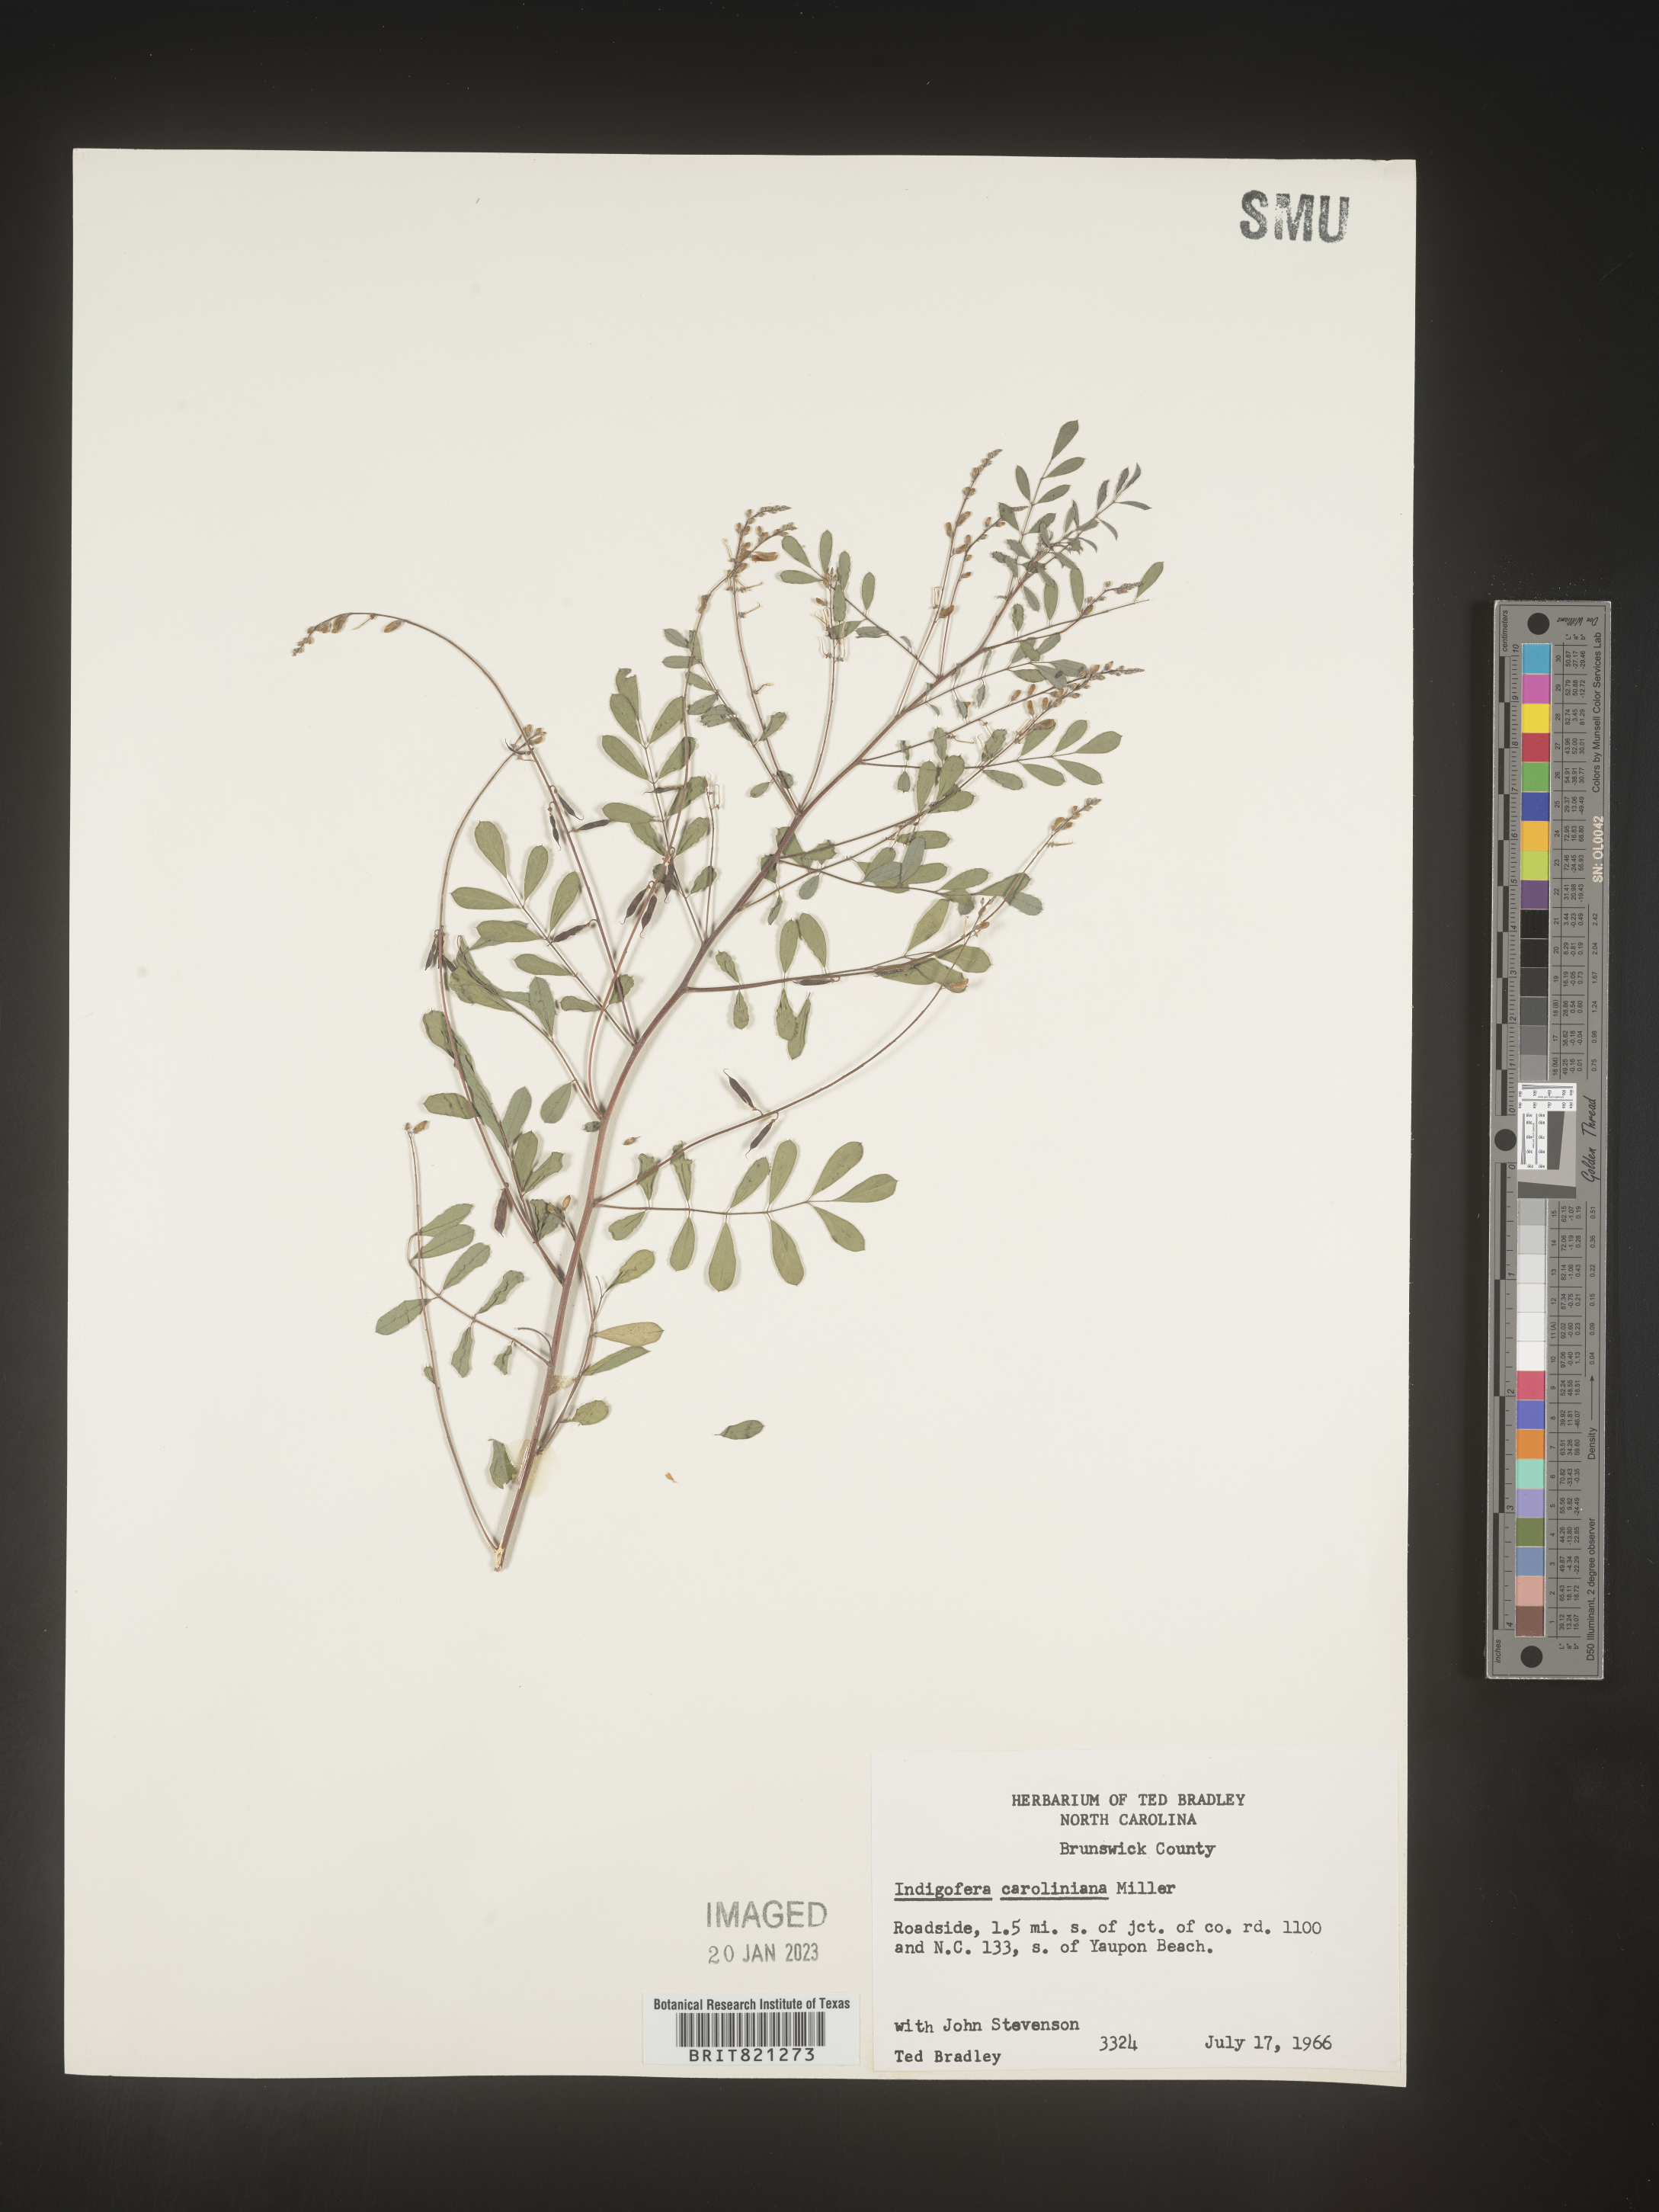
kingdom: Plantae
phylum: Tracheophyta
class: Magnoliopsida
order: Fabales
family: Fabaceae
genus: Indigofera
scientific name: Indigofera
